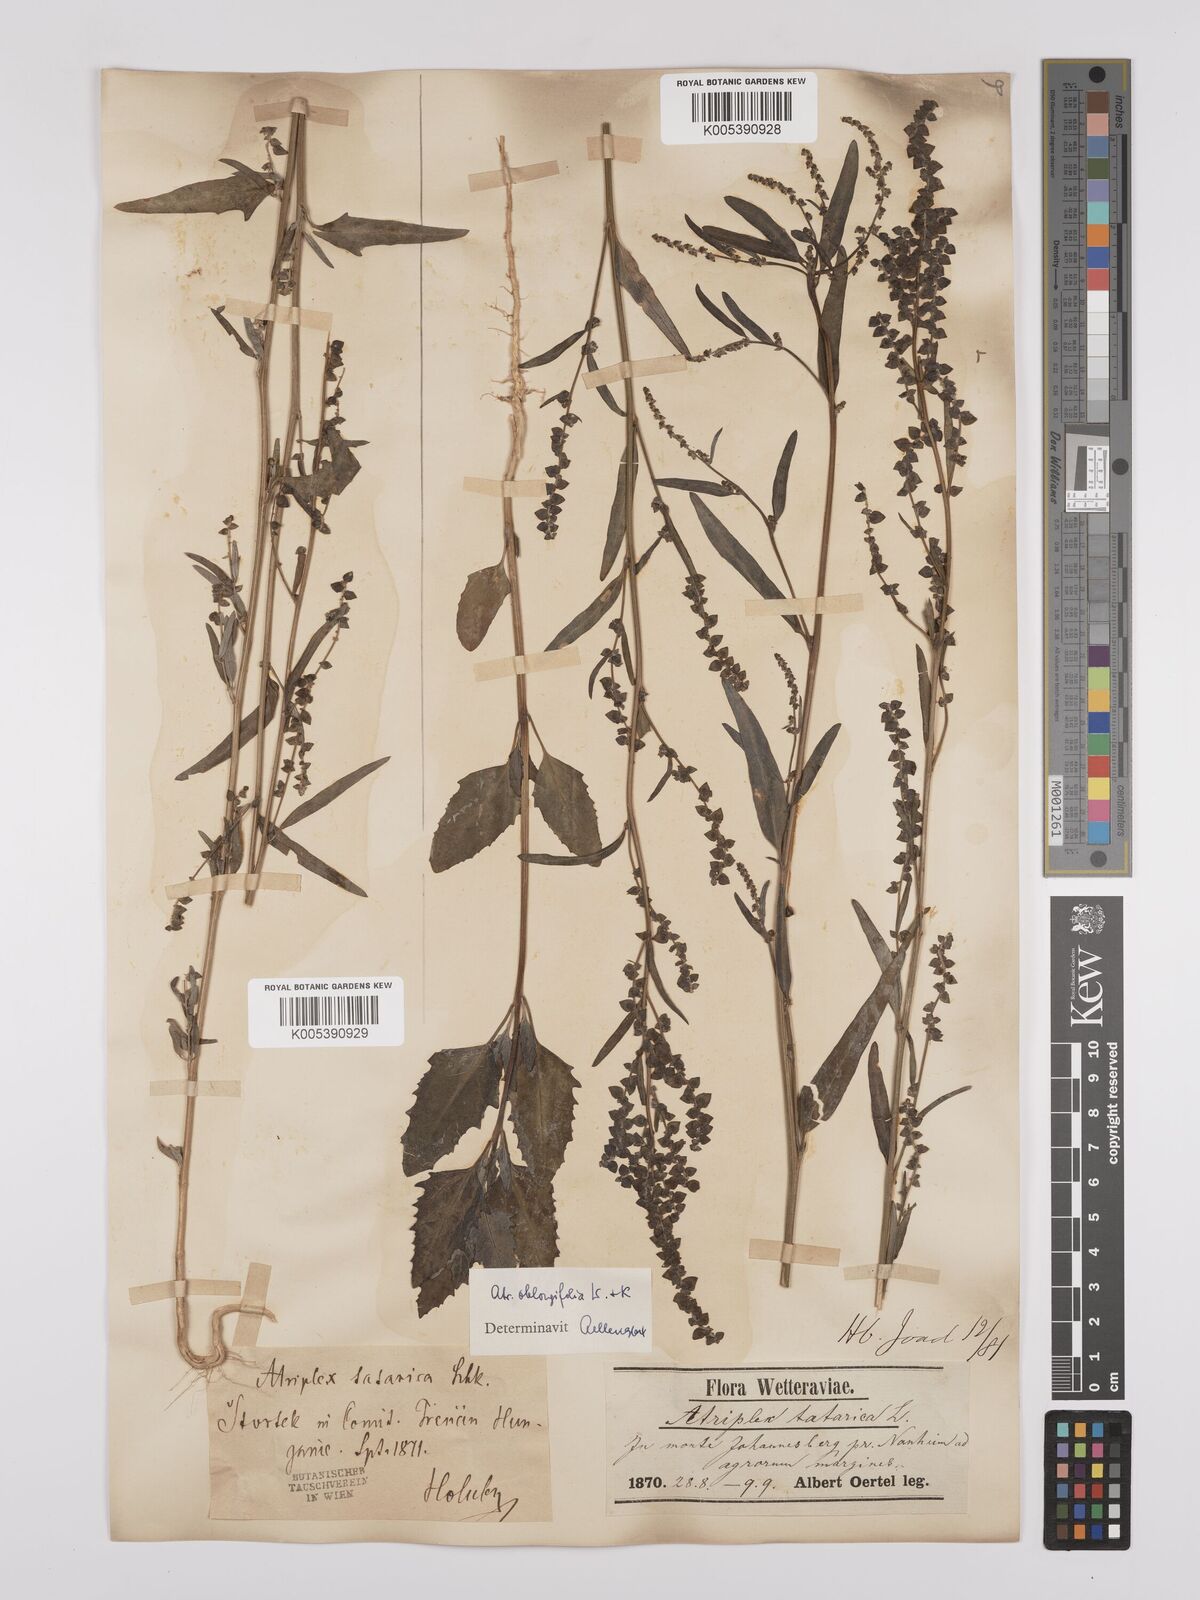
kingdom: Plantae
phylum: Tracheophyta
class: Magnoliopsida
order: Caryophyllales
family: Amaranthaceae
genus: Atriplex
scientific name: Atriplex
